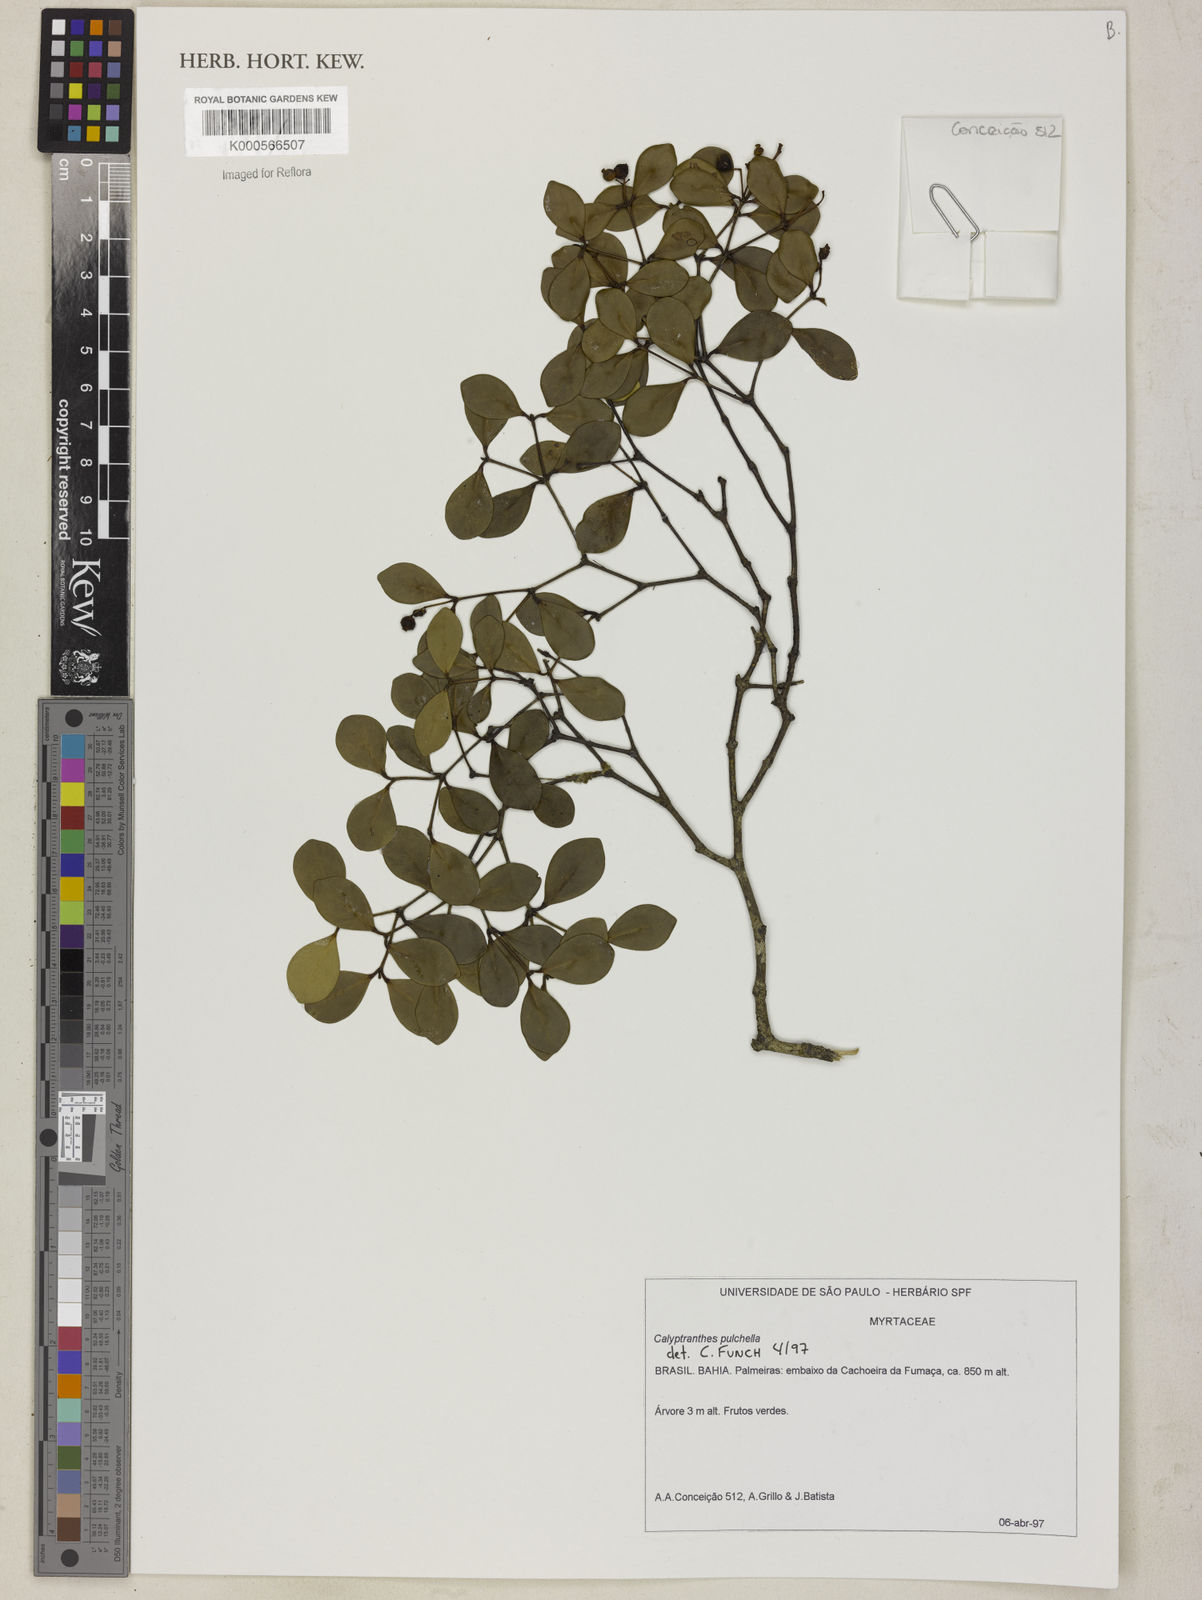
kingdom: Plantae
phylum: Tracheophyta
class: Magnoliopsida
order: Myrtales
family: Myrtaceae
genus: Myrcia
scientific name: Myrcia pulchella
